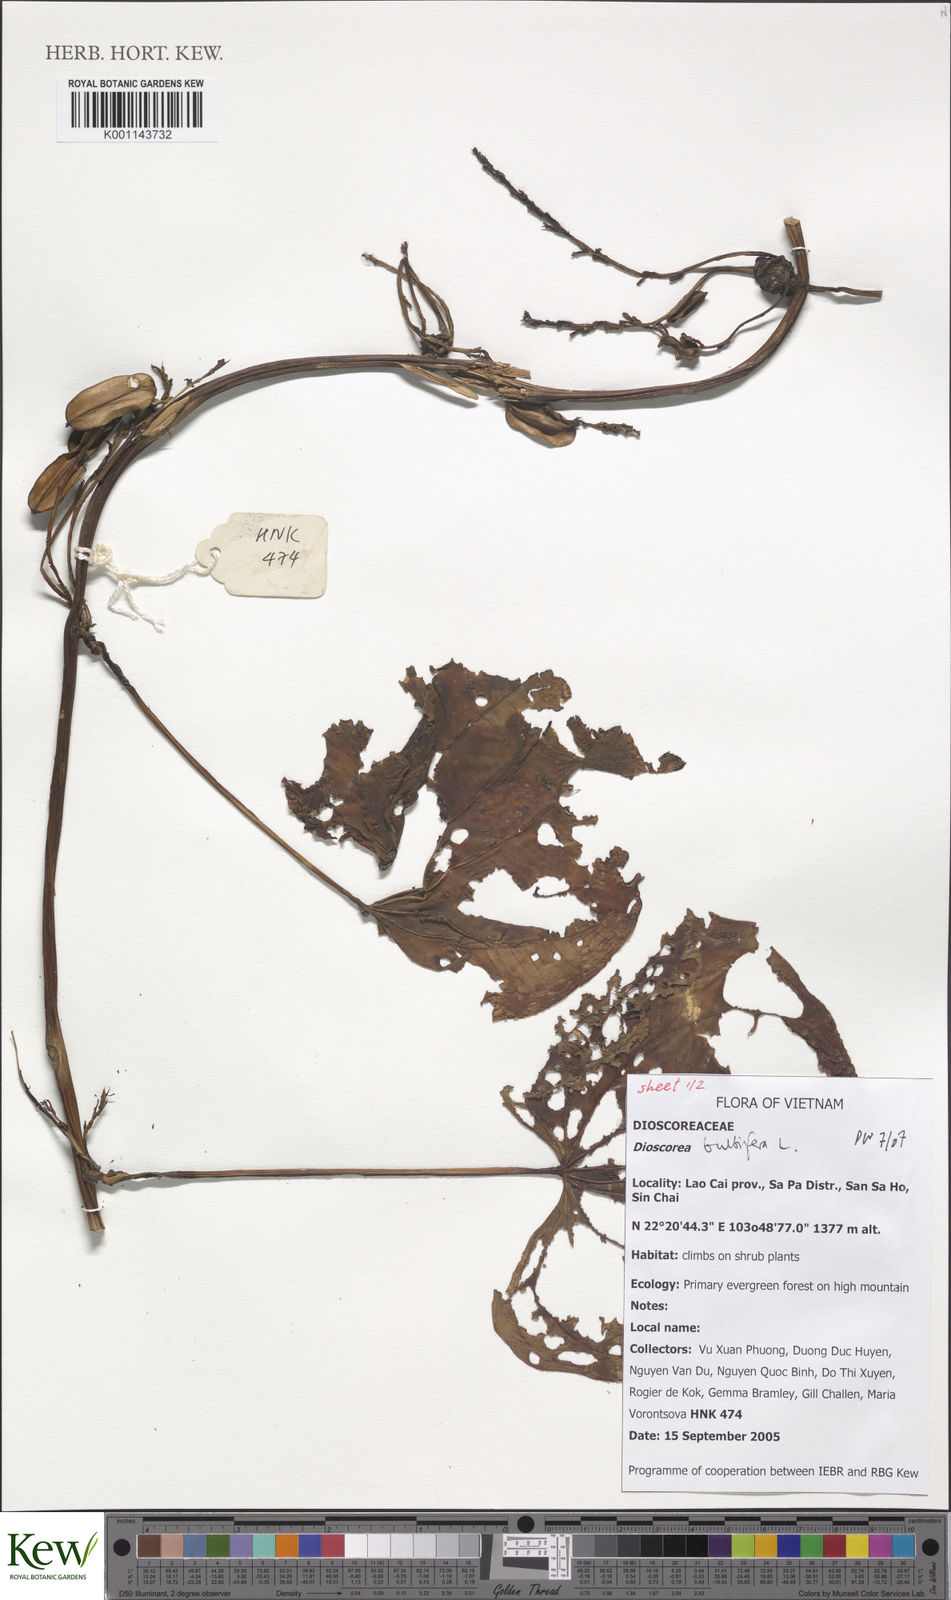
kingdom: Plantae
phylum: Tracheophyta
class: Liliopsida
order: Dioscoreales
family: Dioscoreaceae
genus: Dioscorea
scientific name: Dioscorea bulbifera
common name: Air yam
